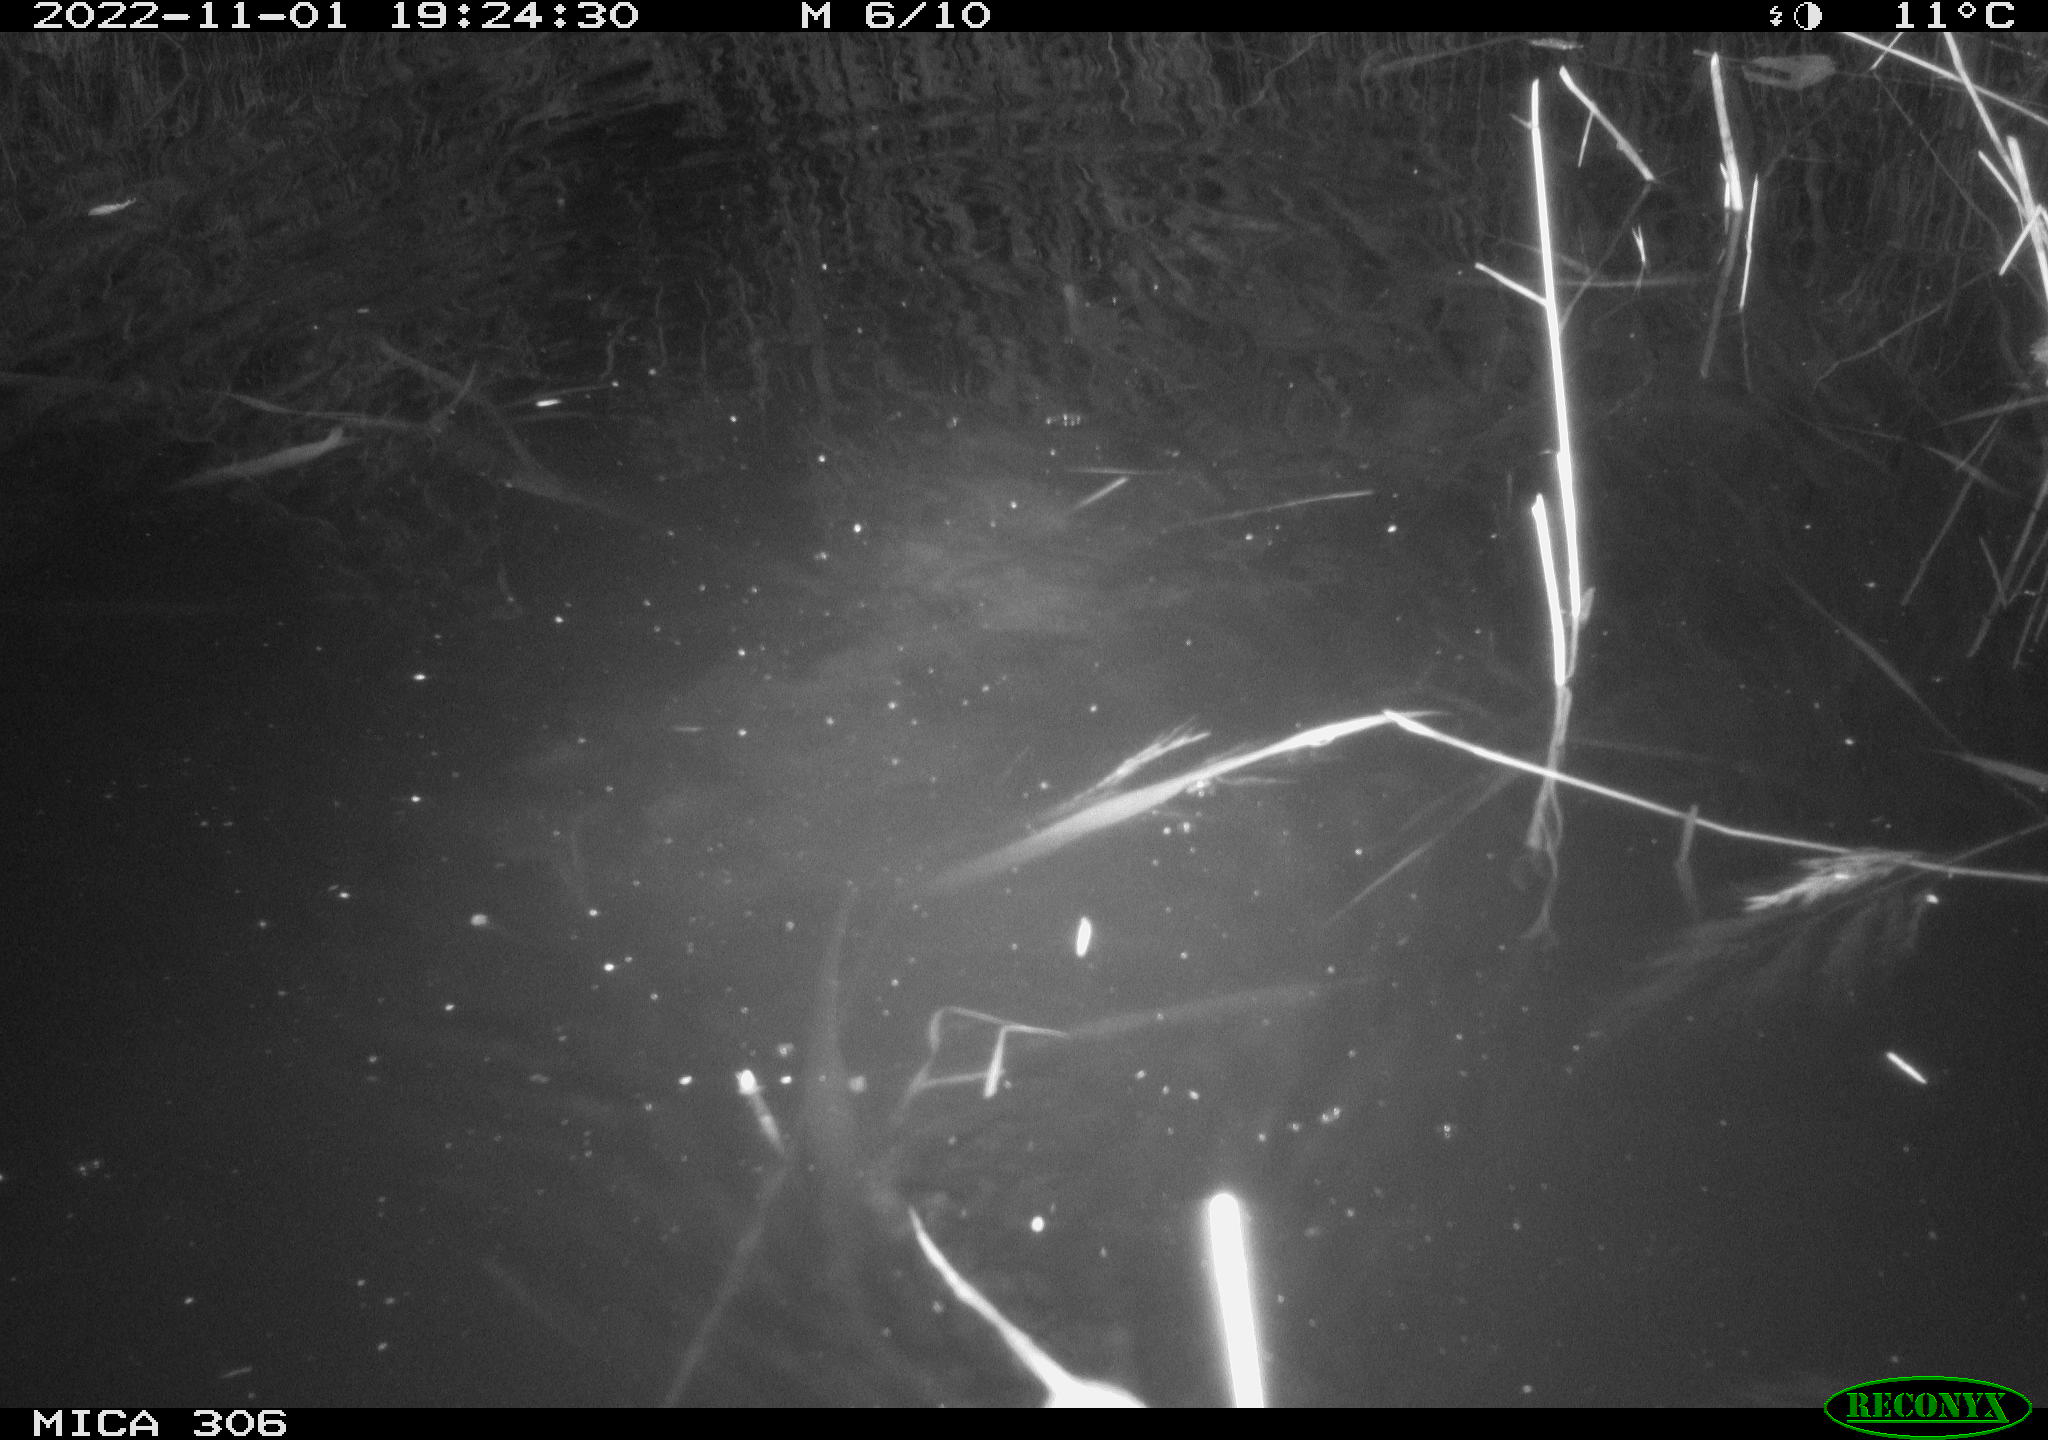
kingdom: Animalia
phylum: Chordata
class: Mammalia
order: Rodentia
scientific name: Rodentia
